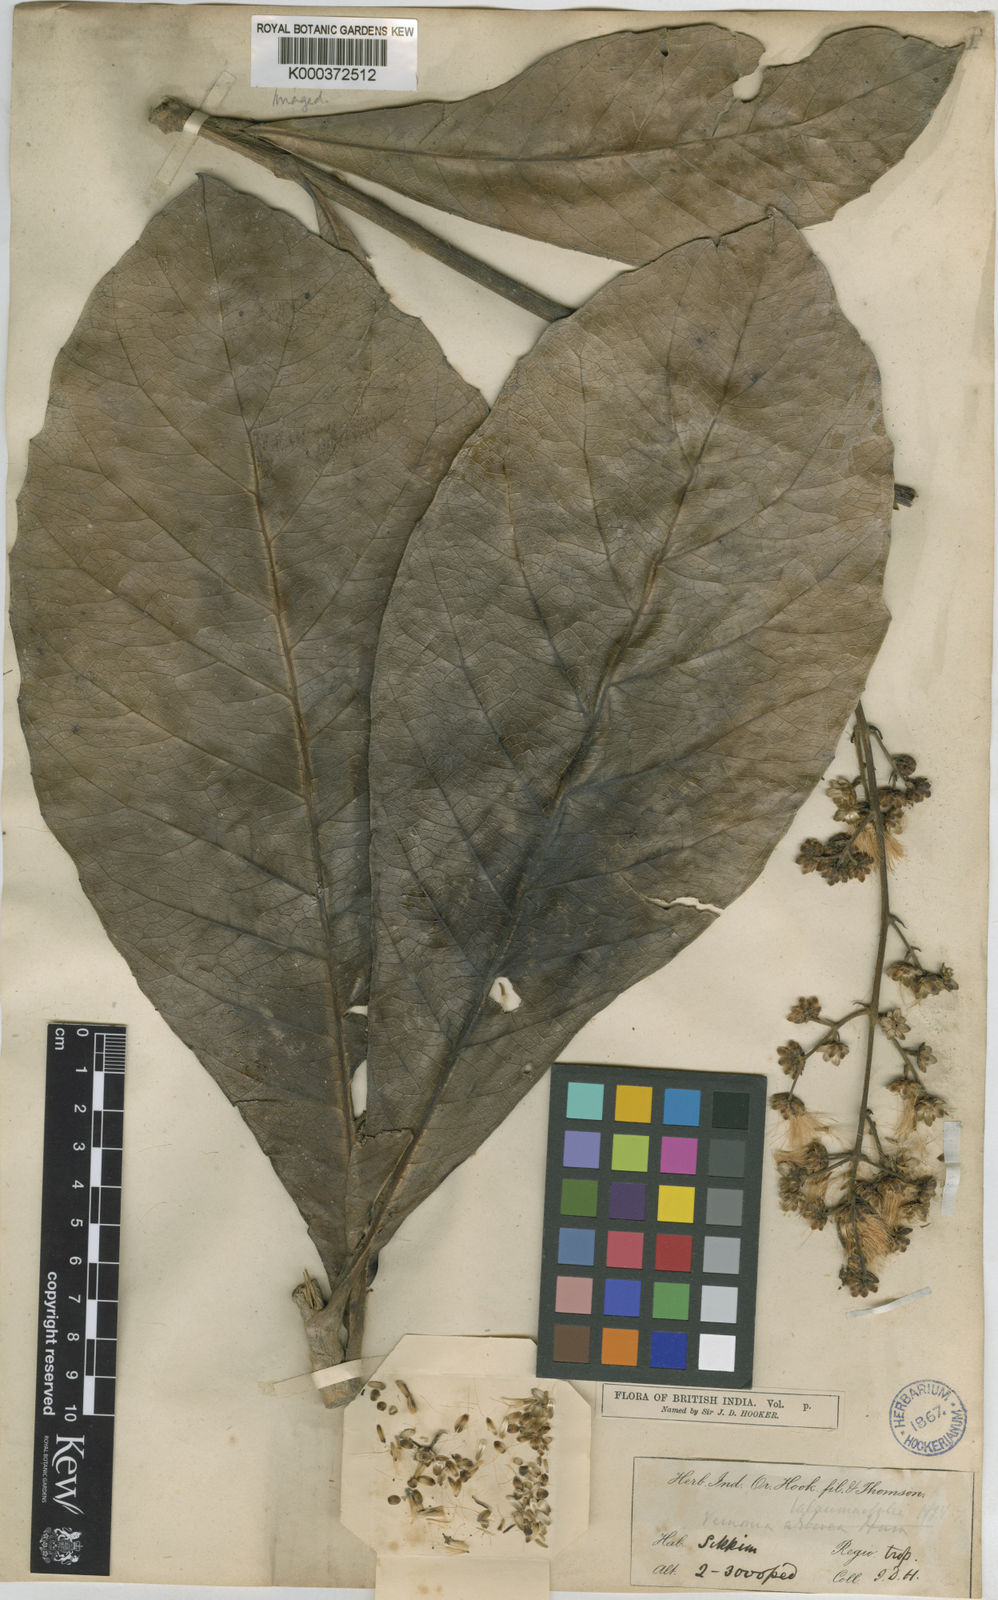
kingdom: Plantae
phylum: Tracheophyta
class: Magnoliopsida
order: Asterales
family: Asteraceae
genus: Monosis
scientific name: Monosis talaumifolia
